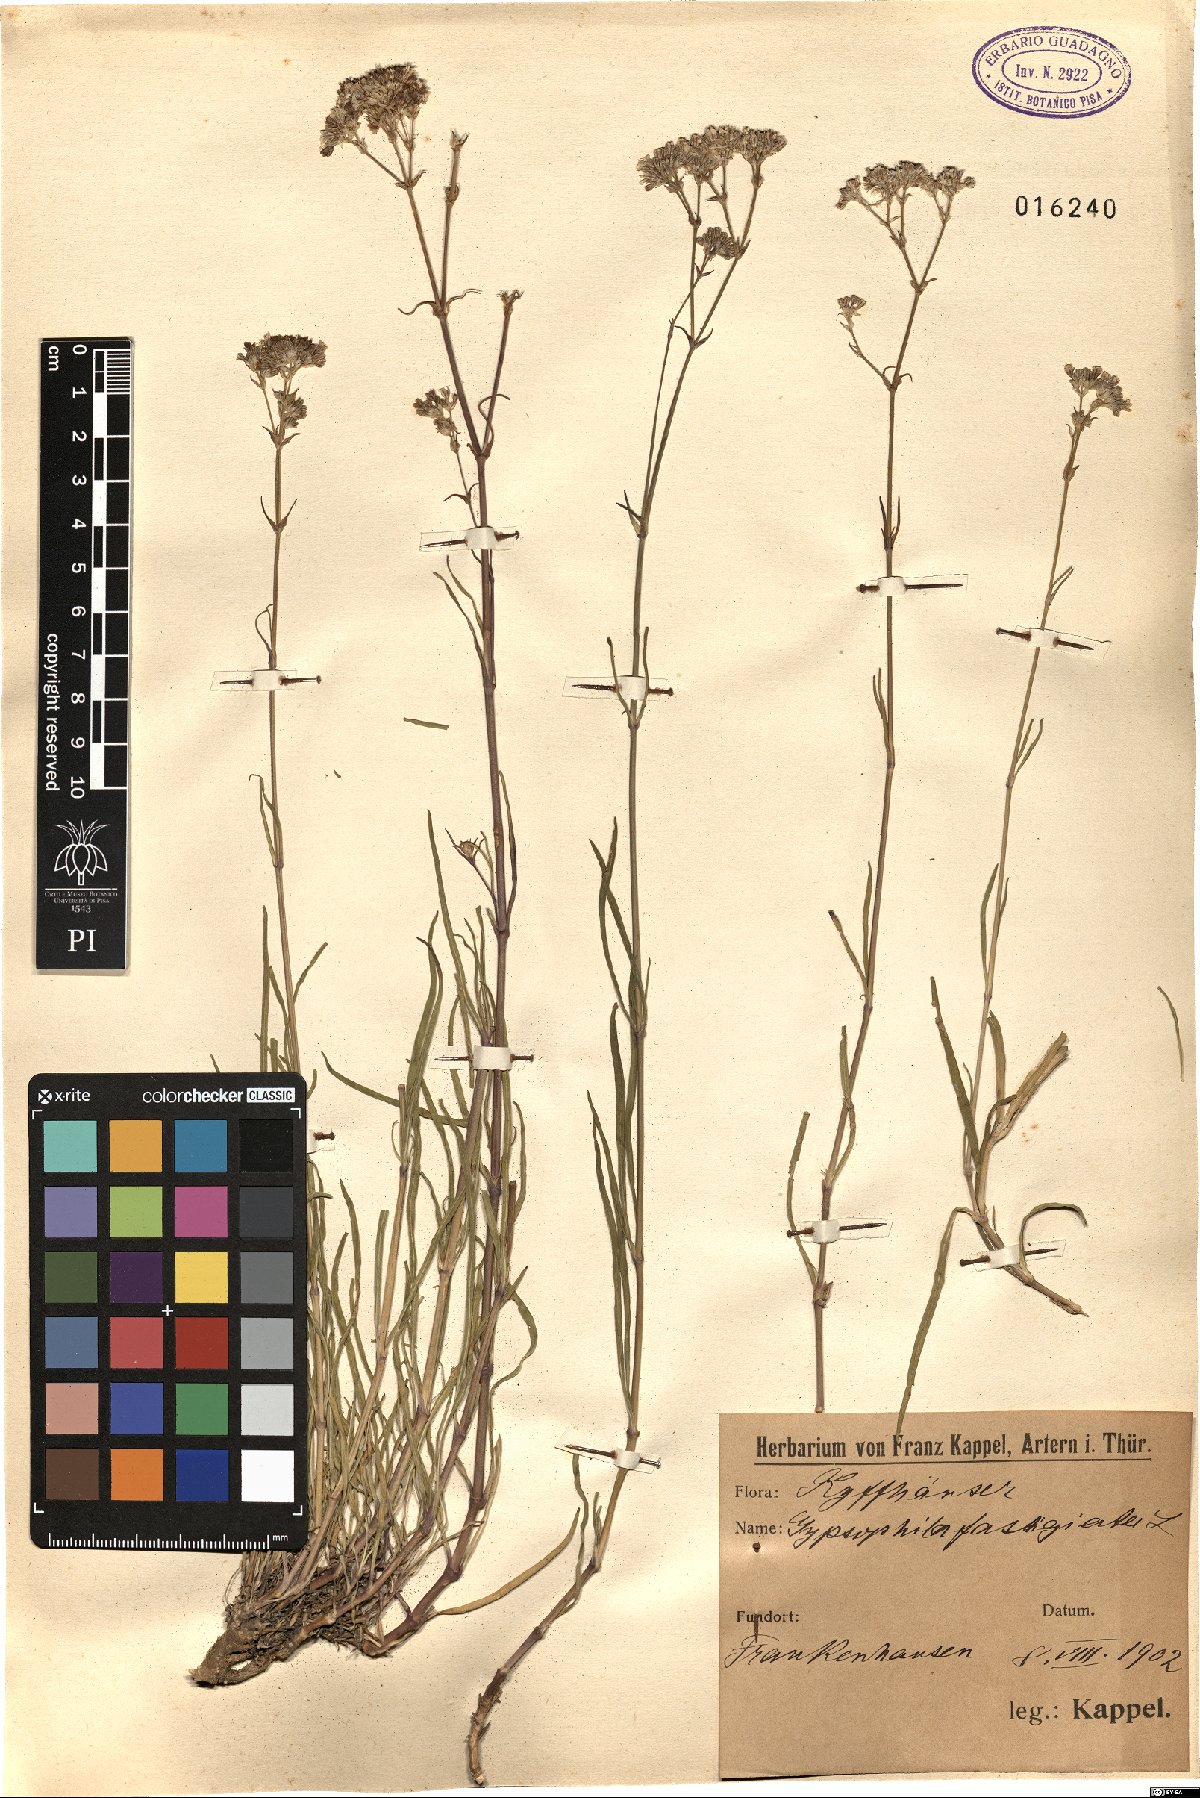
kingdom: Plantae
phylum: Tracheophyta
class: Magnoliopsida
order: Caryophyllales
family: Caryophyllaceae
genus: Gypsophila
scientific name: Gypsophila fastigiata
